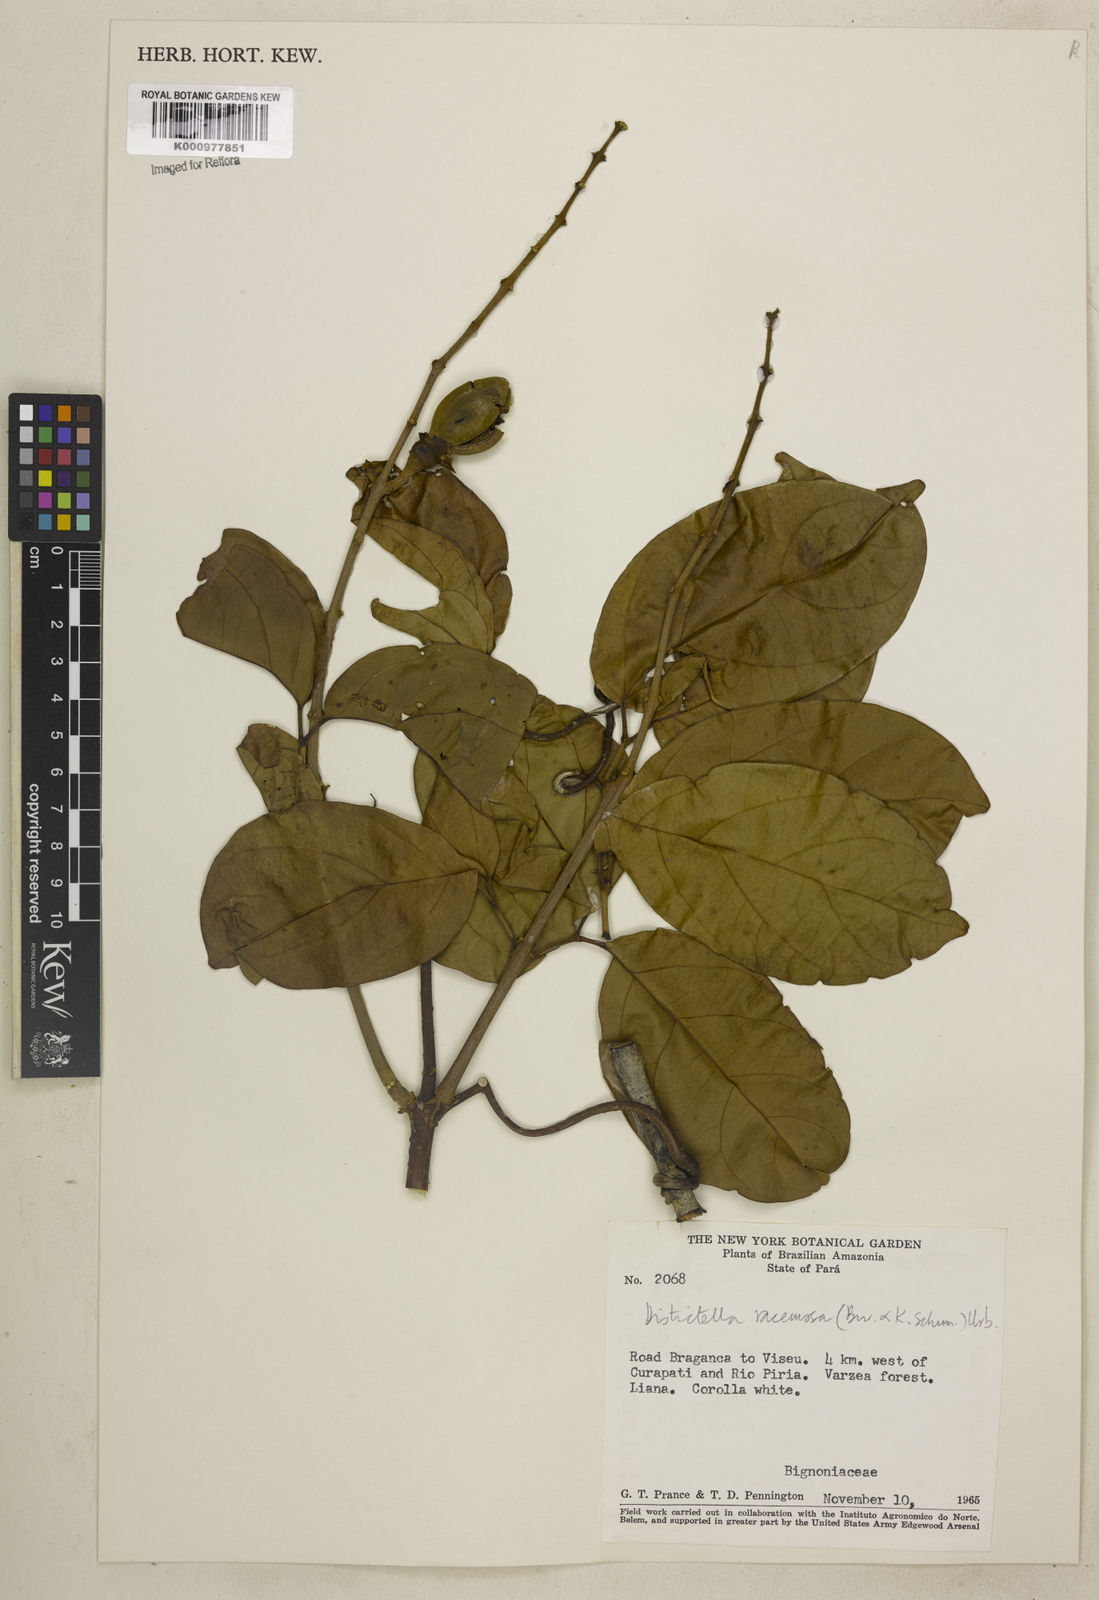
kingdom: Plantae
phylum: Tracheophyta
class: Magnoliopsida
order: Lamiales
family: Bignoniaceae
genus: Amphilophium
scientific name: Amphilophium racemosum
